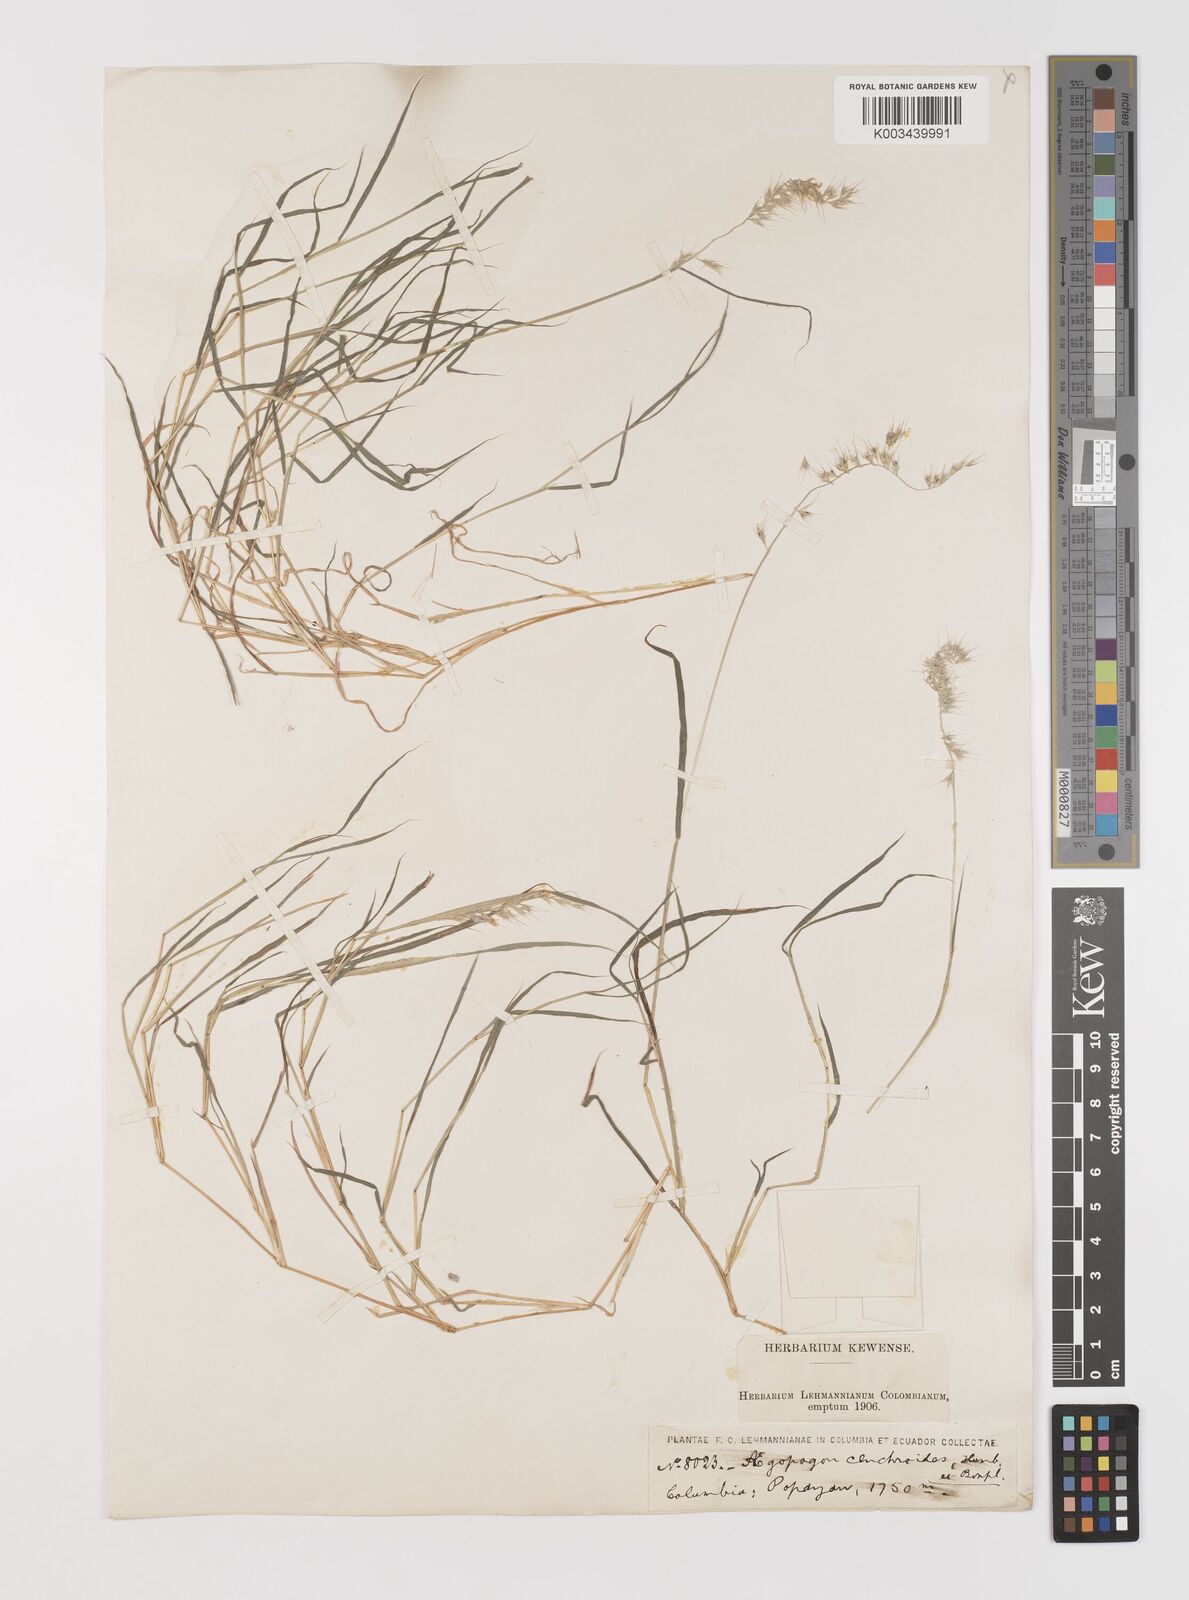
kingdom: Plantae
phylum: Tracheophyta
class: Liliopsida
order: Poales
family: Poaceae
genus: Muhlenbergia
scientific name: Muhlenbergia cenchroides
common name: Relaxgrass
